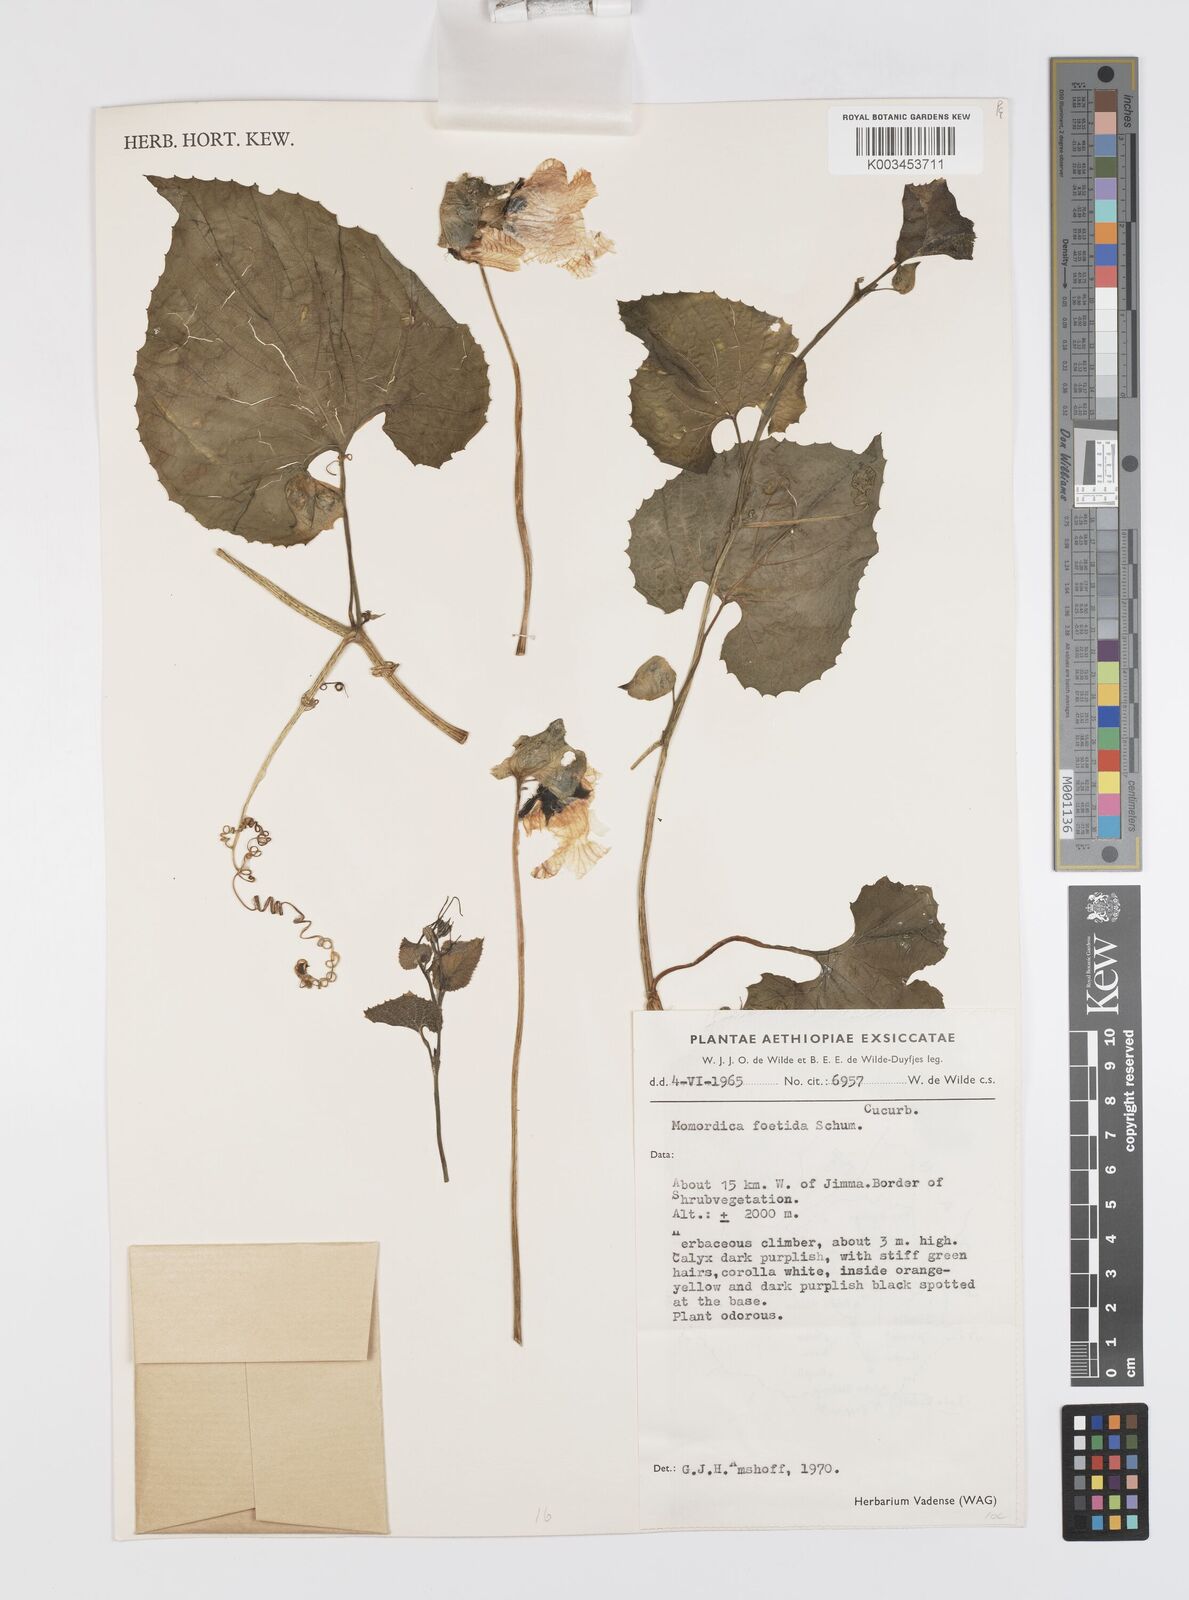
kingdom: Plantae
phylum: Tracheophyta
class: Magnoliopsida
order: Cucurbitales
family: Cucurbitaceae
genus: Momordica
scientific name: Momordica foetida
